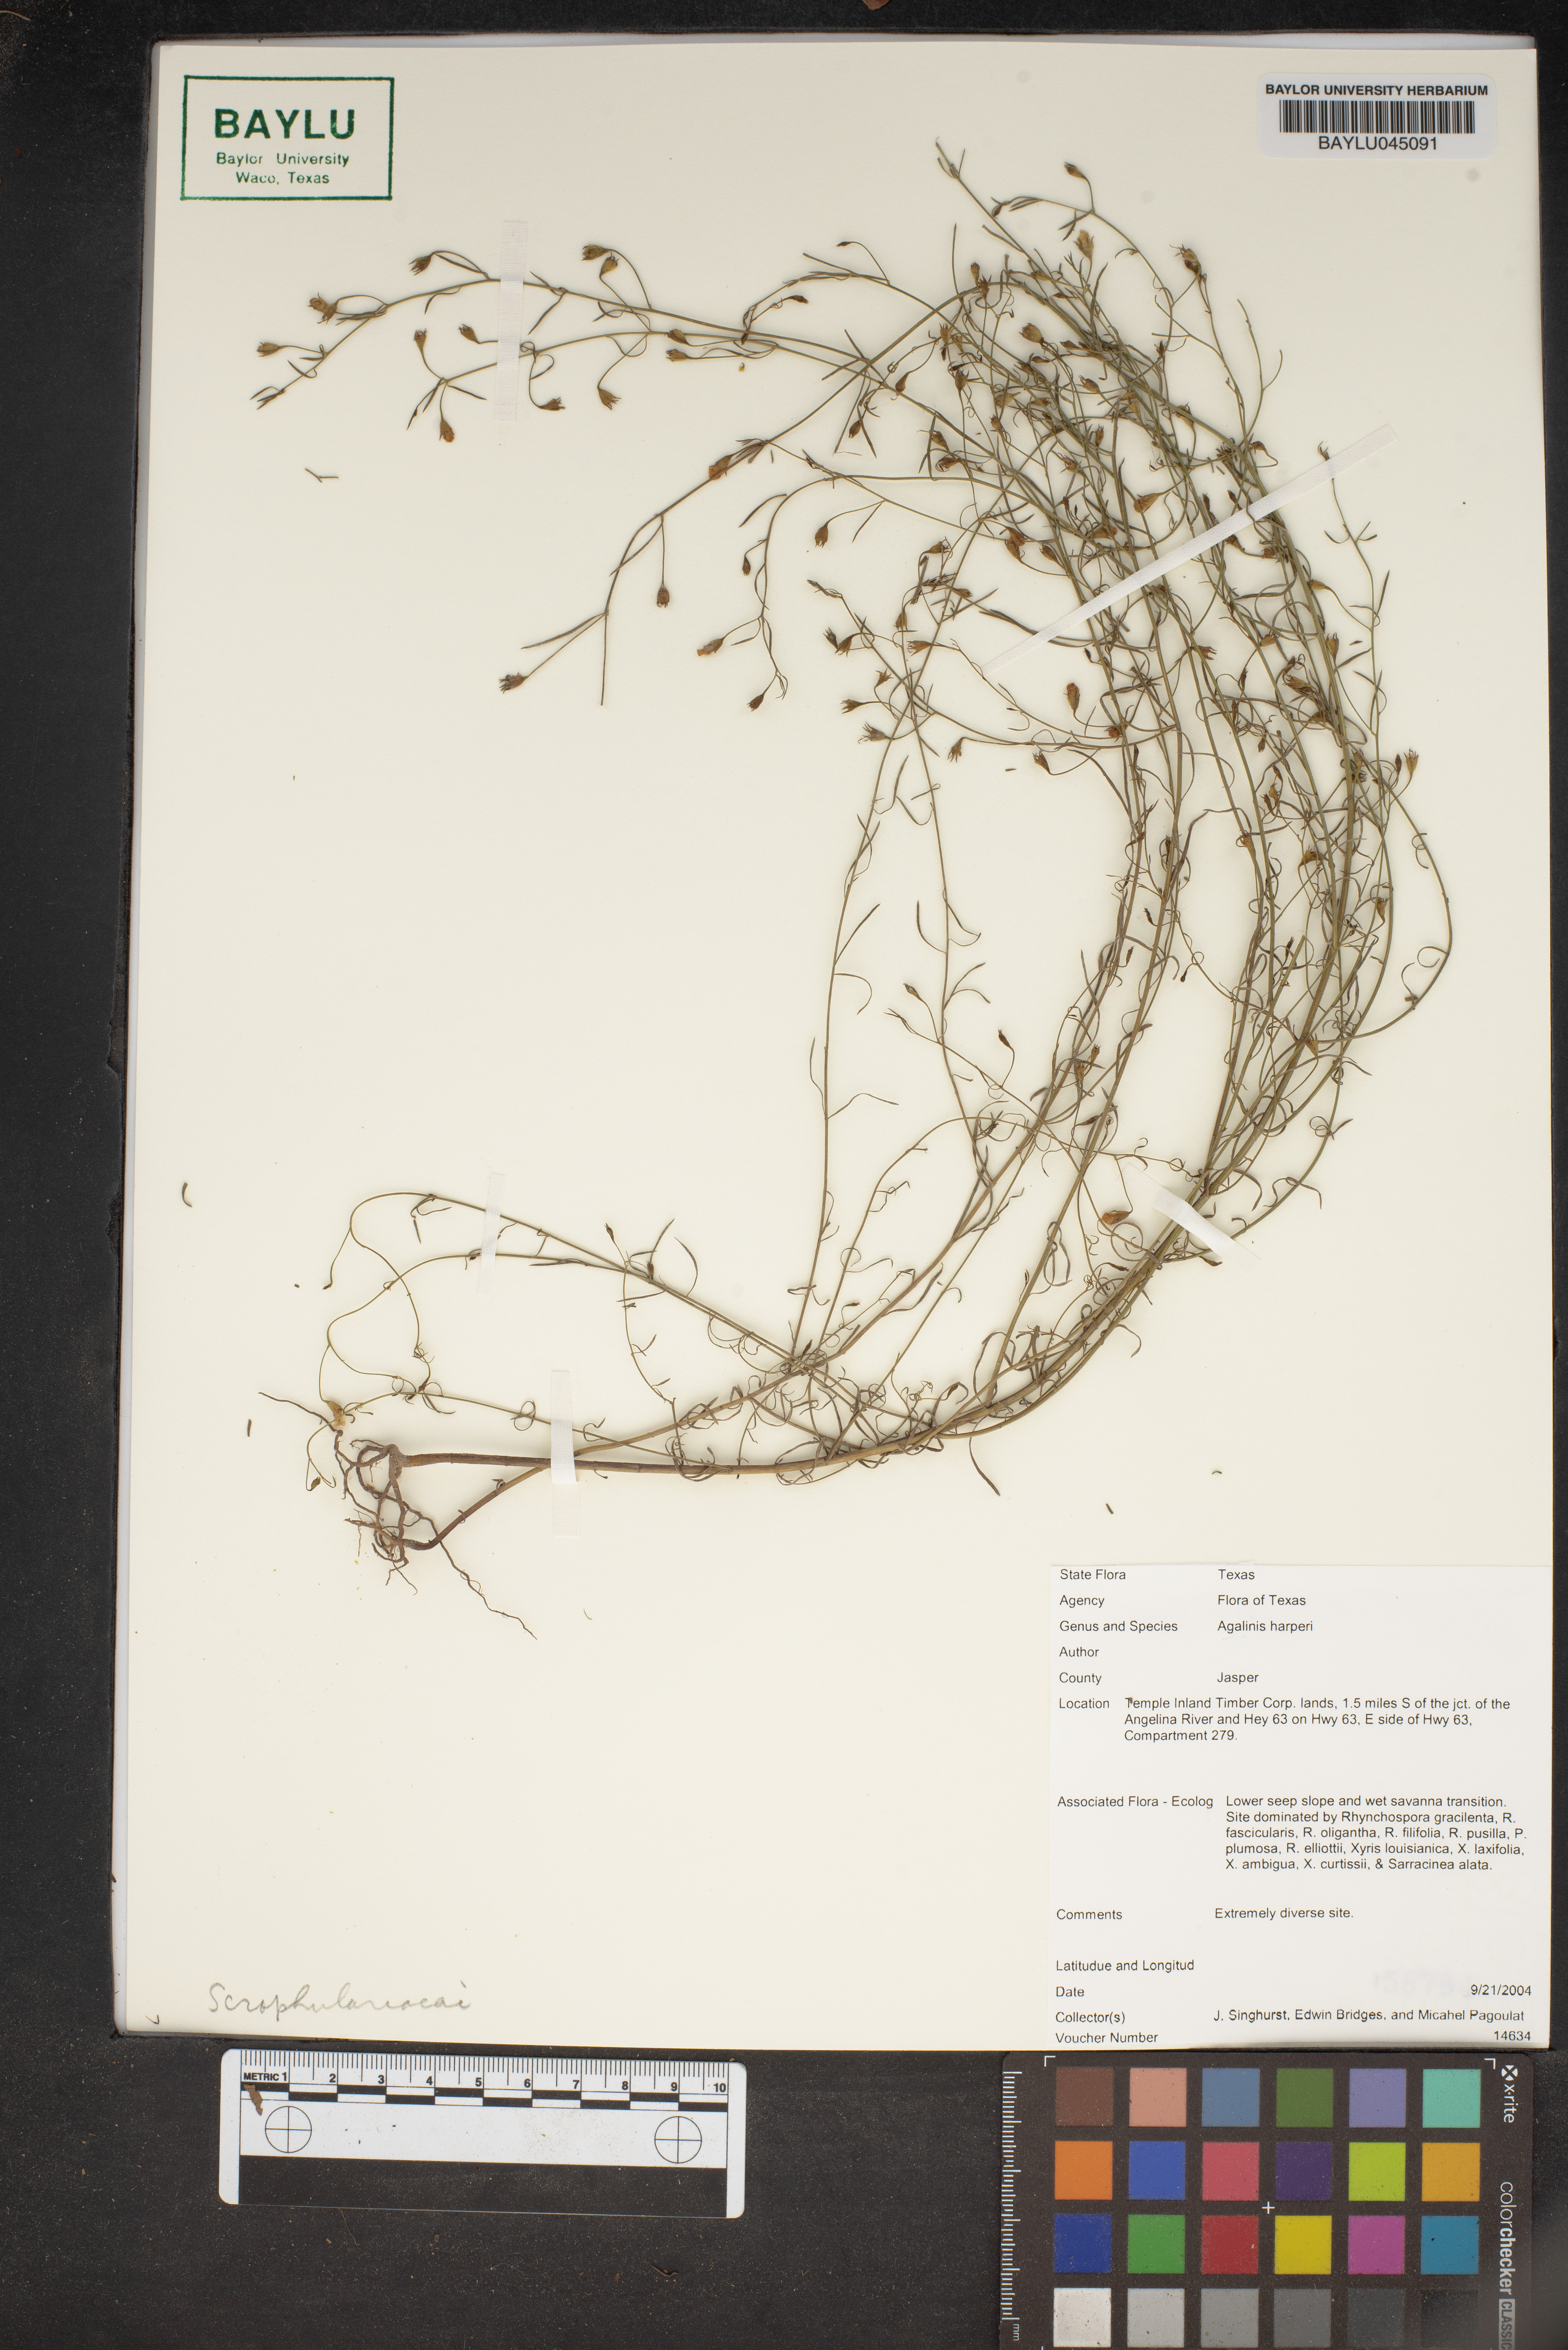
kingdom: Plantae
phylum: Tracheophyta
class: Magnoliopsida
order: Lamiales
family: Orobanchaceae
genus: Agalinis
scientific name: Agalinis harperi
